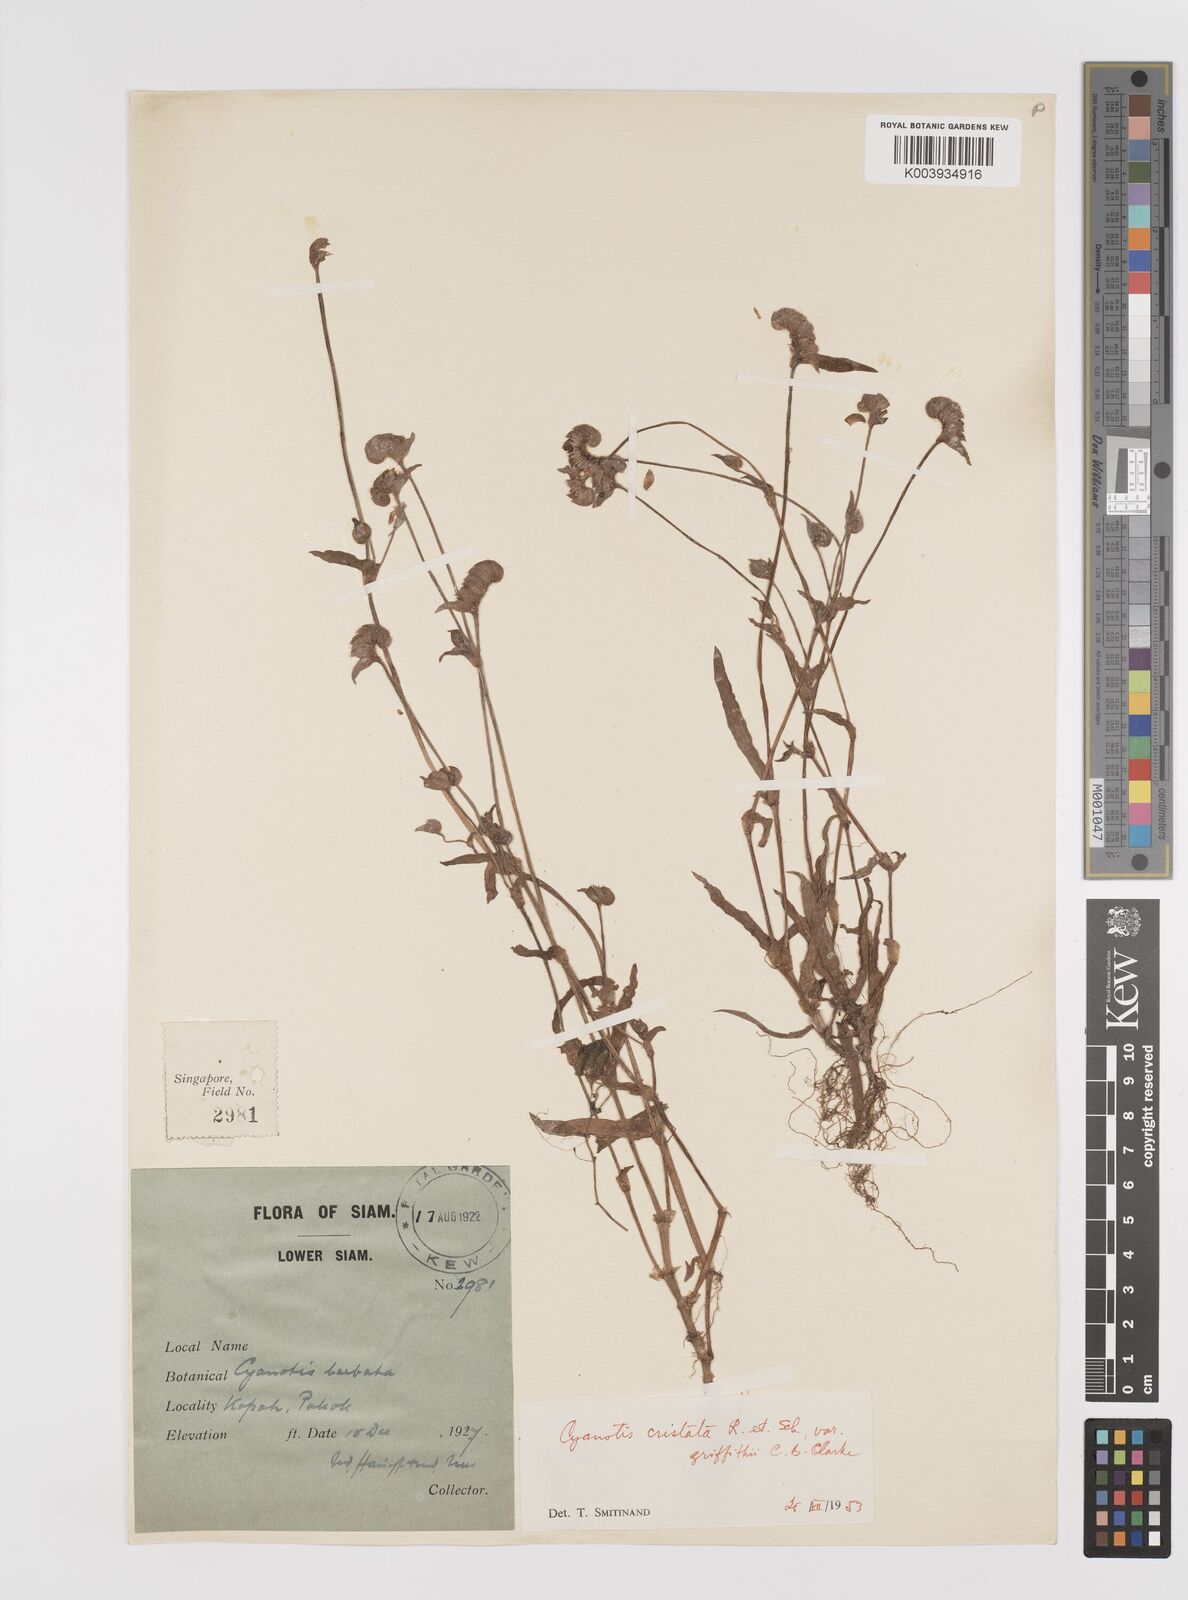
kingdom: Plantae
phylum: Tracheophyta
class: Liliopsida
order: Commelinales
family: Commelinaceae
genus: Cyanotis
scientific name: Cyanotis cristata
